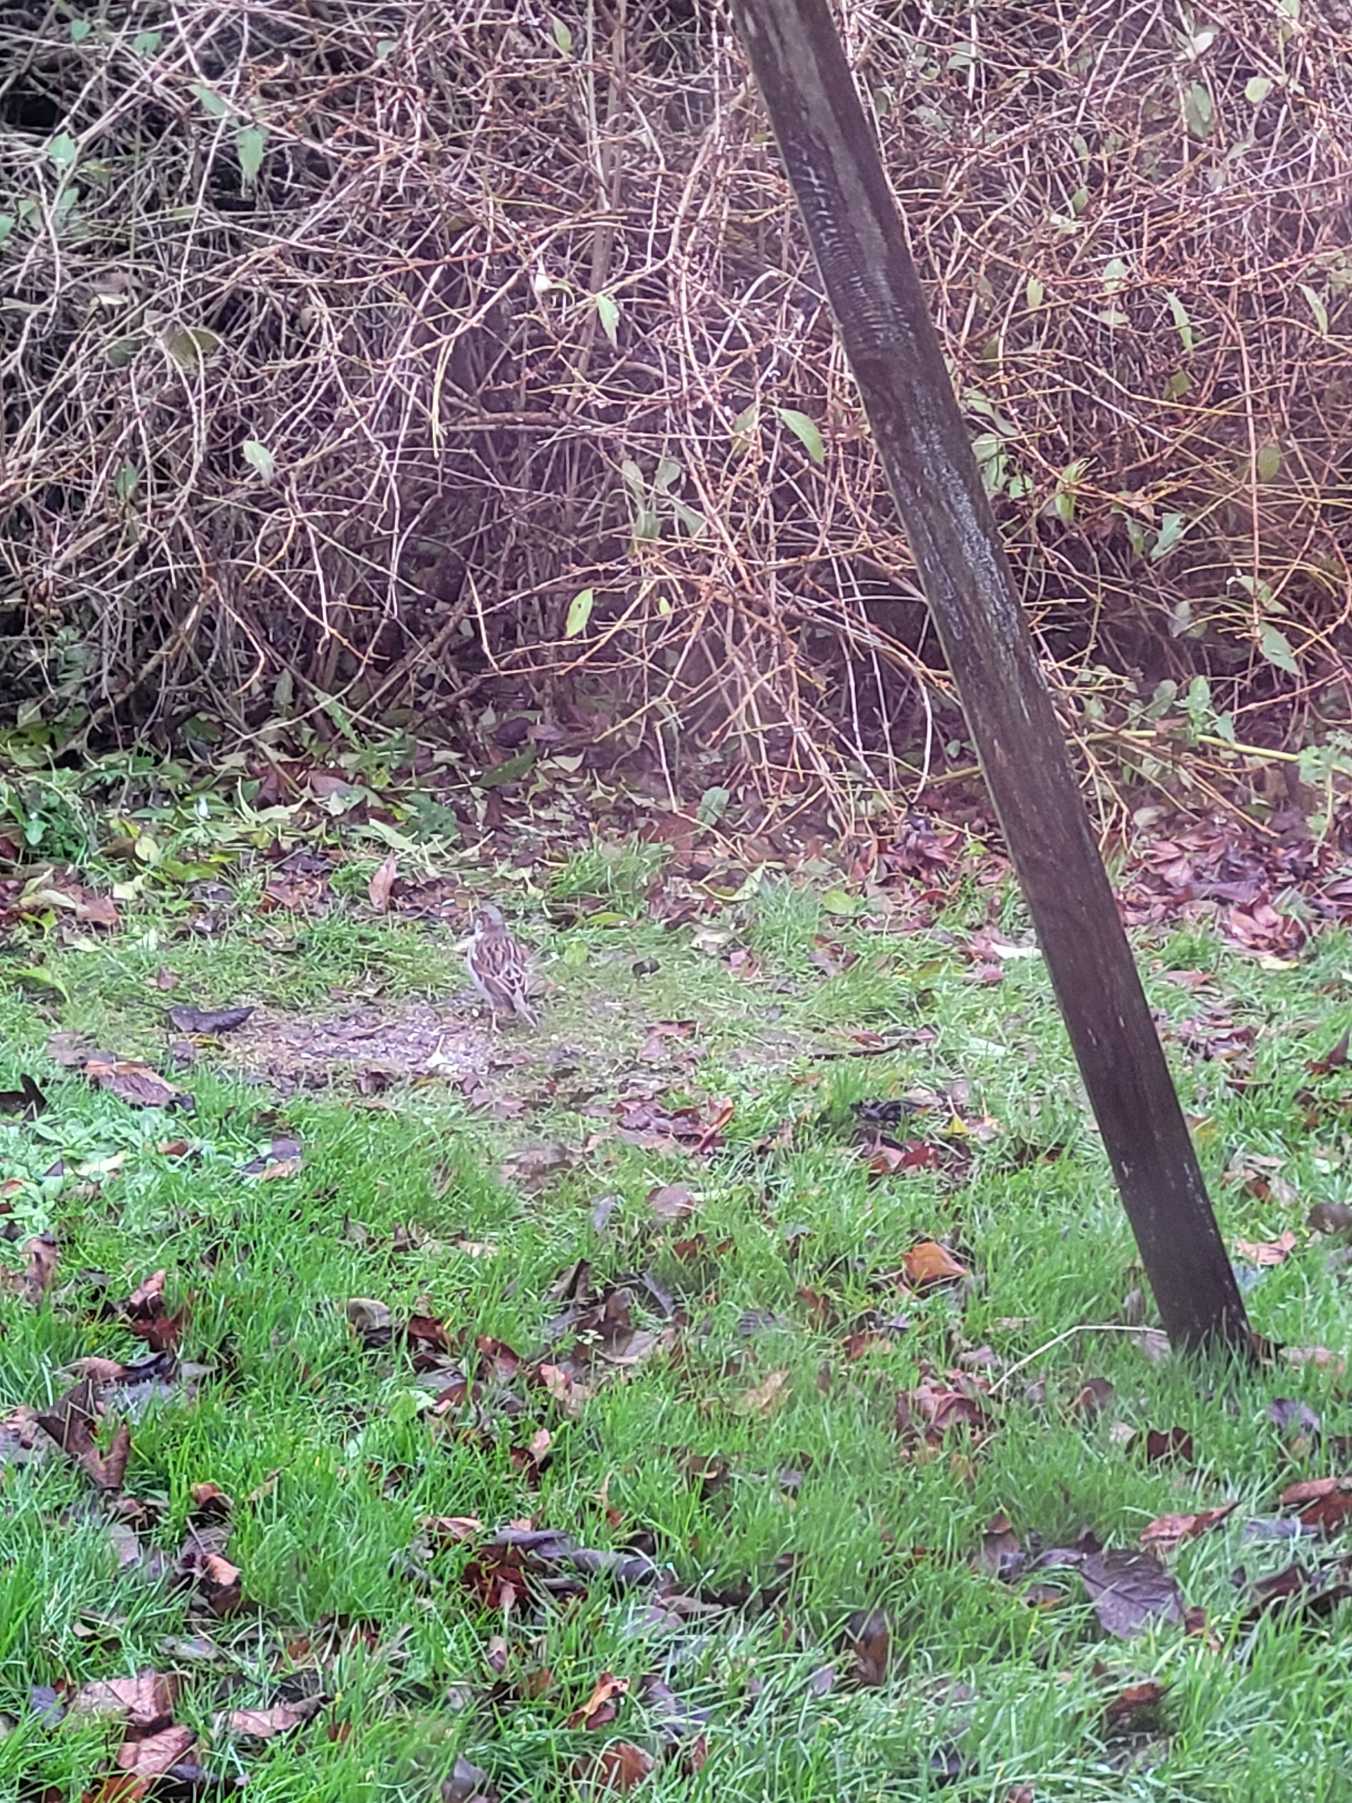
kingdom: Animalia
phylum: Chordata
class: Aves
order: Passeriformes
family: Passeridae
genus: Passer
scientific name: Passer domesticus
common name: Gråspurv
